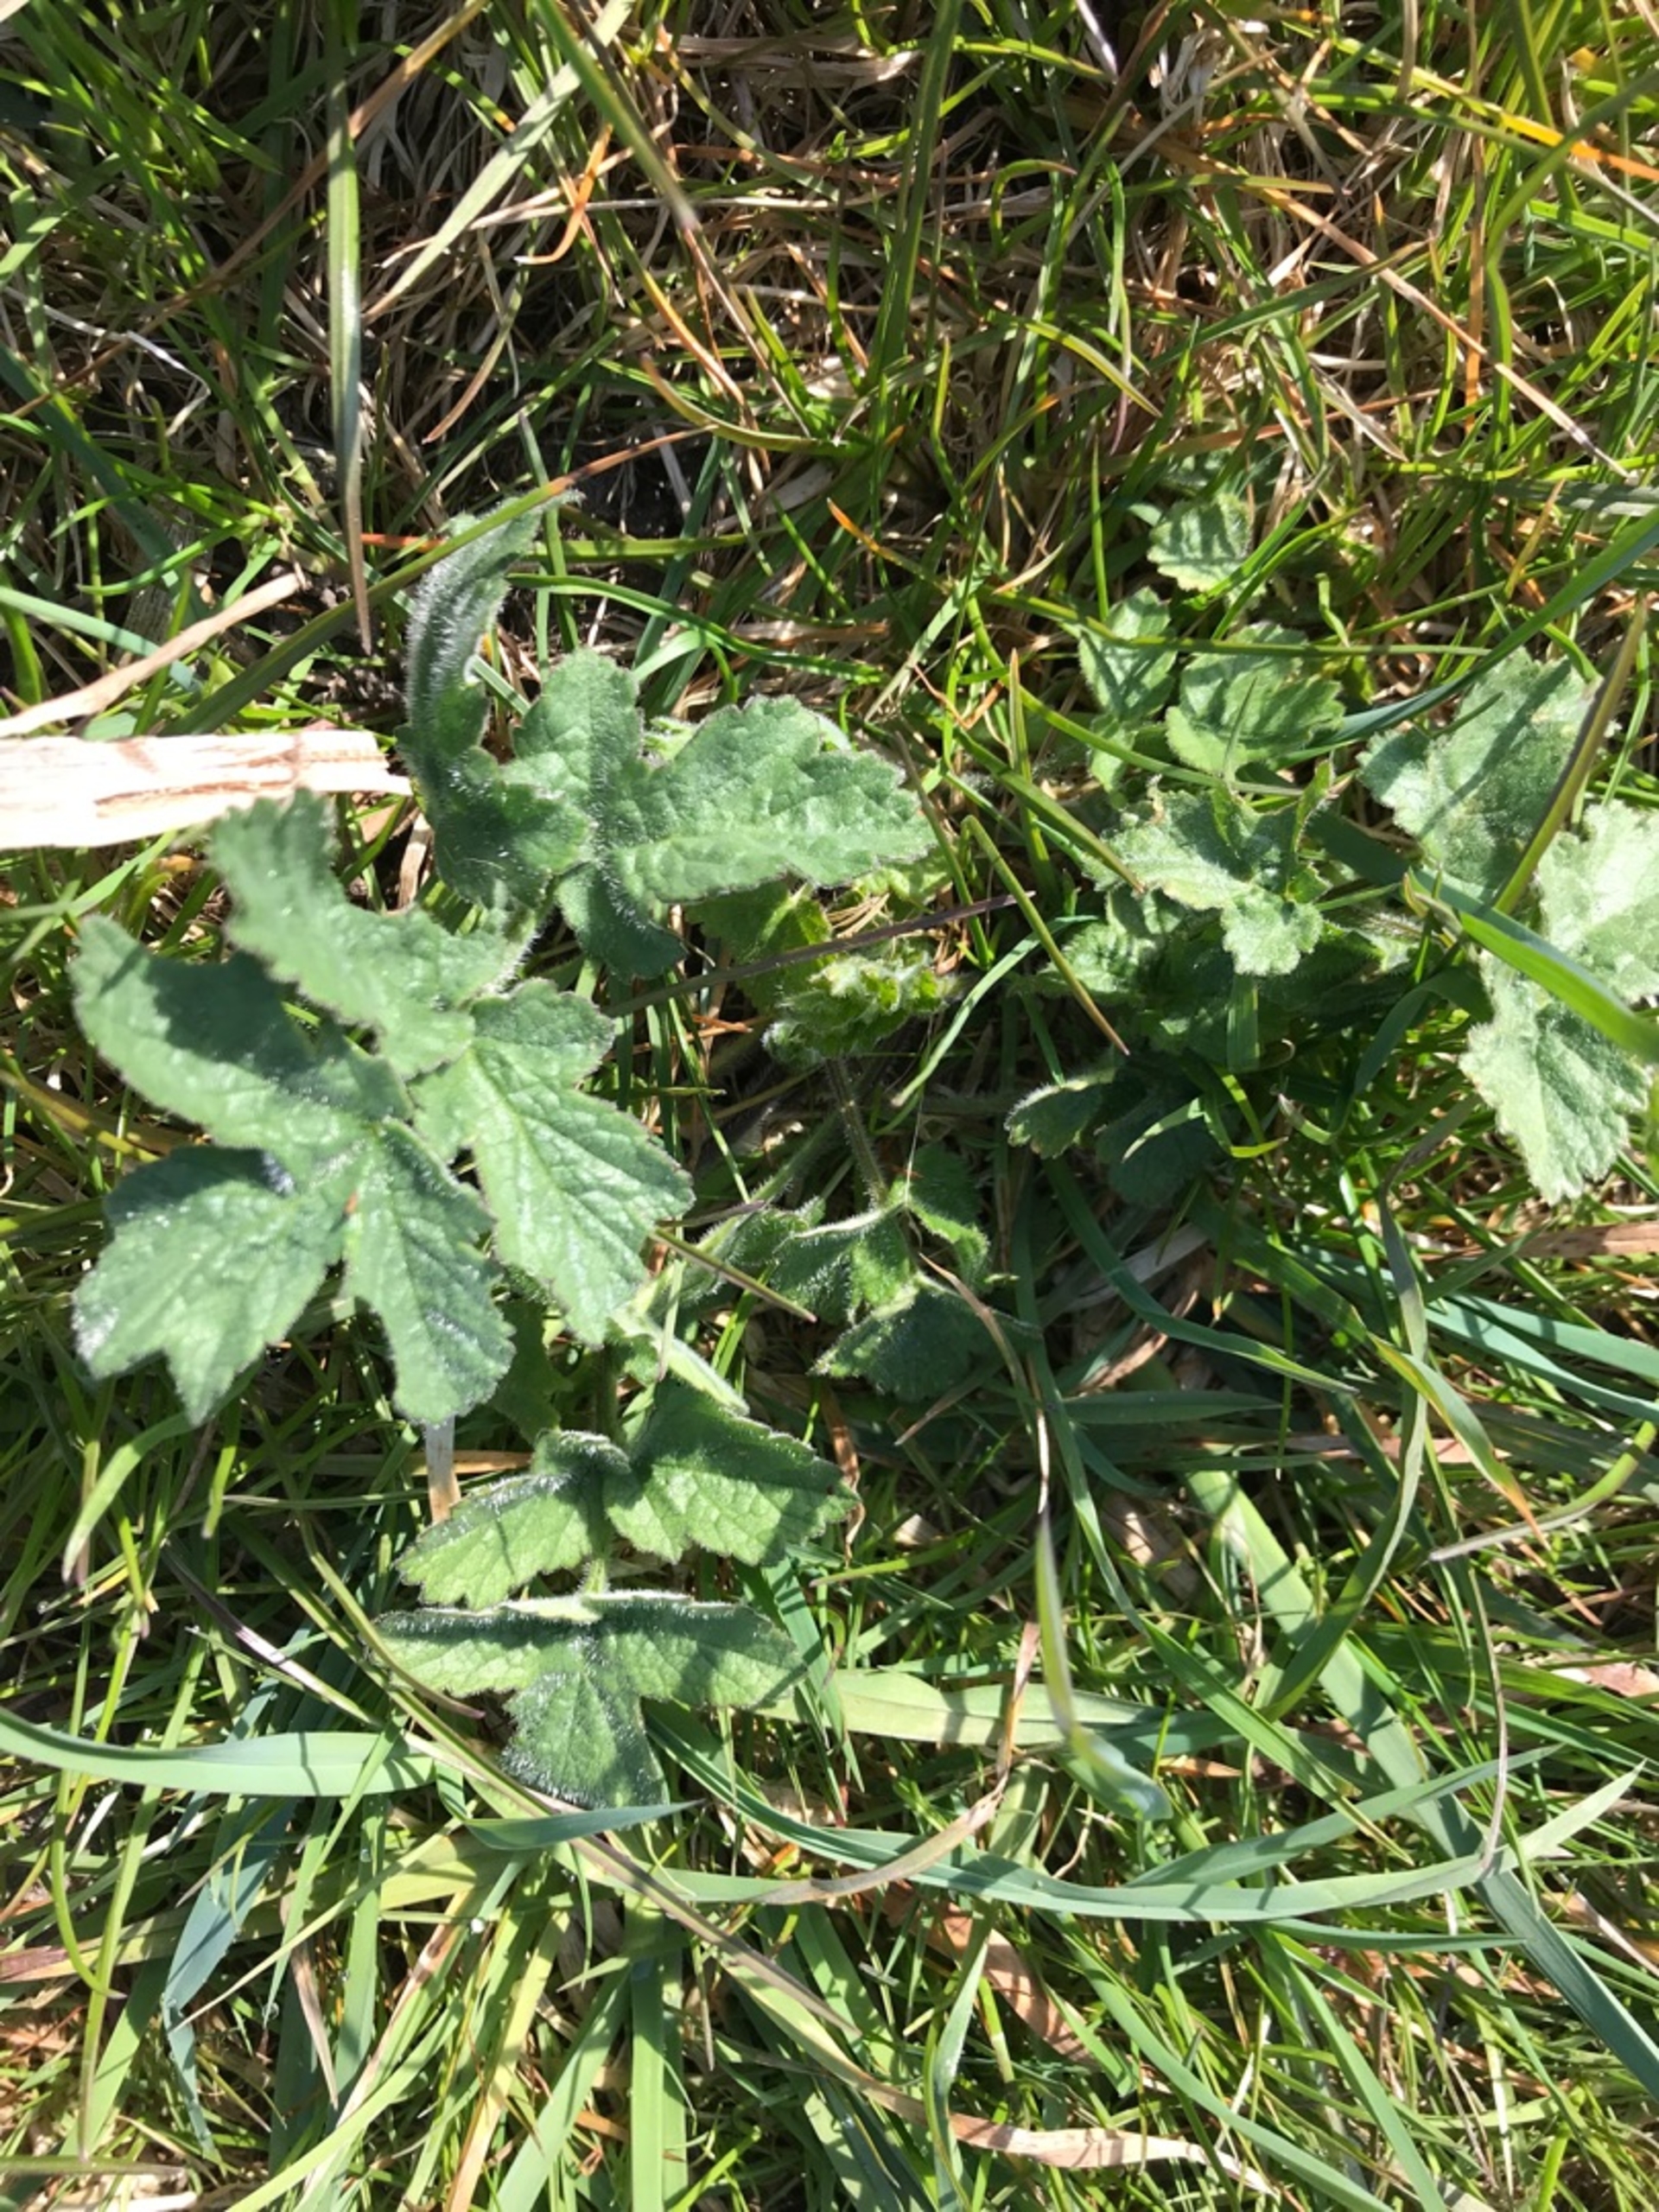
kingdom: Plantae
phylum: Tracheophyta
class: Magnoliopsida
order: Apiales
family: Apiaceae
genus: Heracleum
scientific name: Heracleum sphondylium
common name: Almindelig bjørneklo
